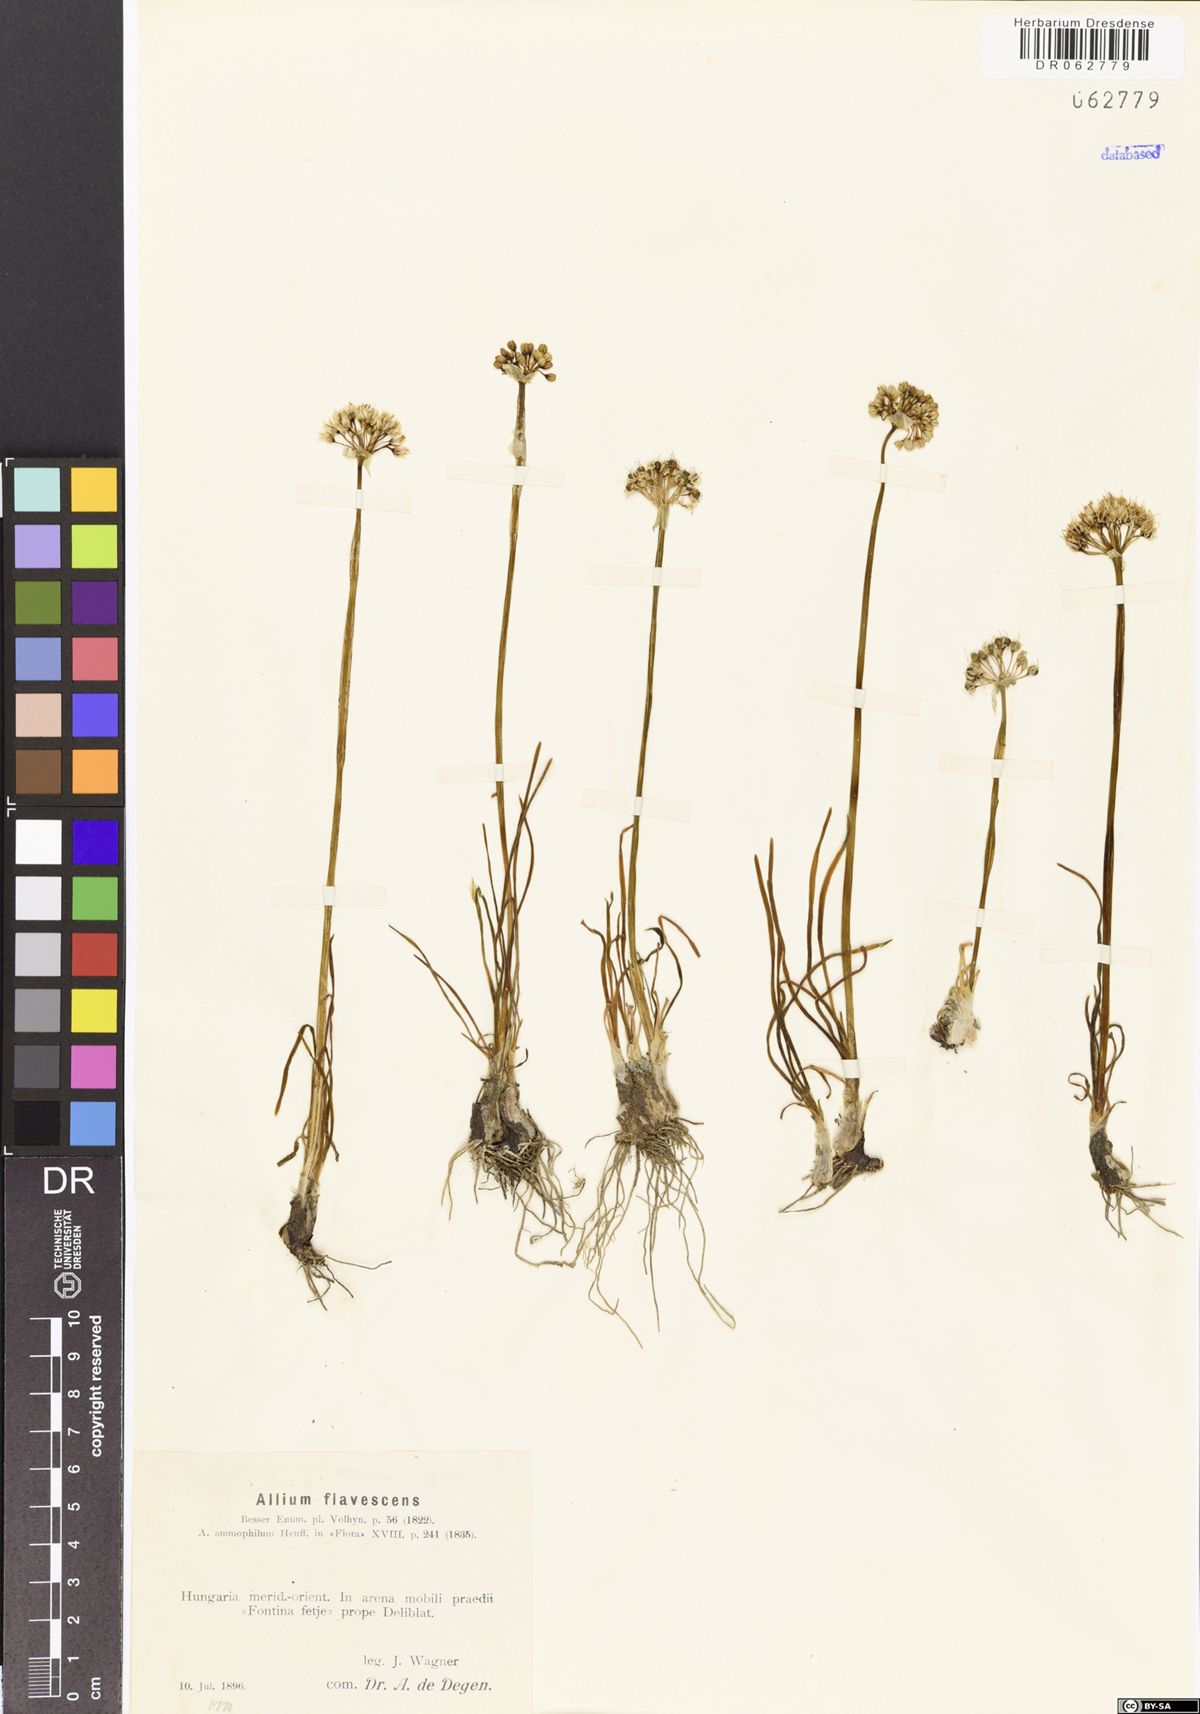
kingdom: Plantae
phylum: Tracheophyta
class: Liliopsida
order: Asparagales
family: Amaryllidaceae
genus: Allium
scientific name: Allium flavescens
